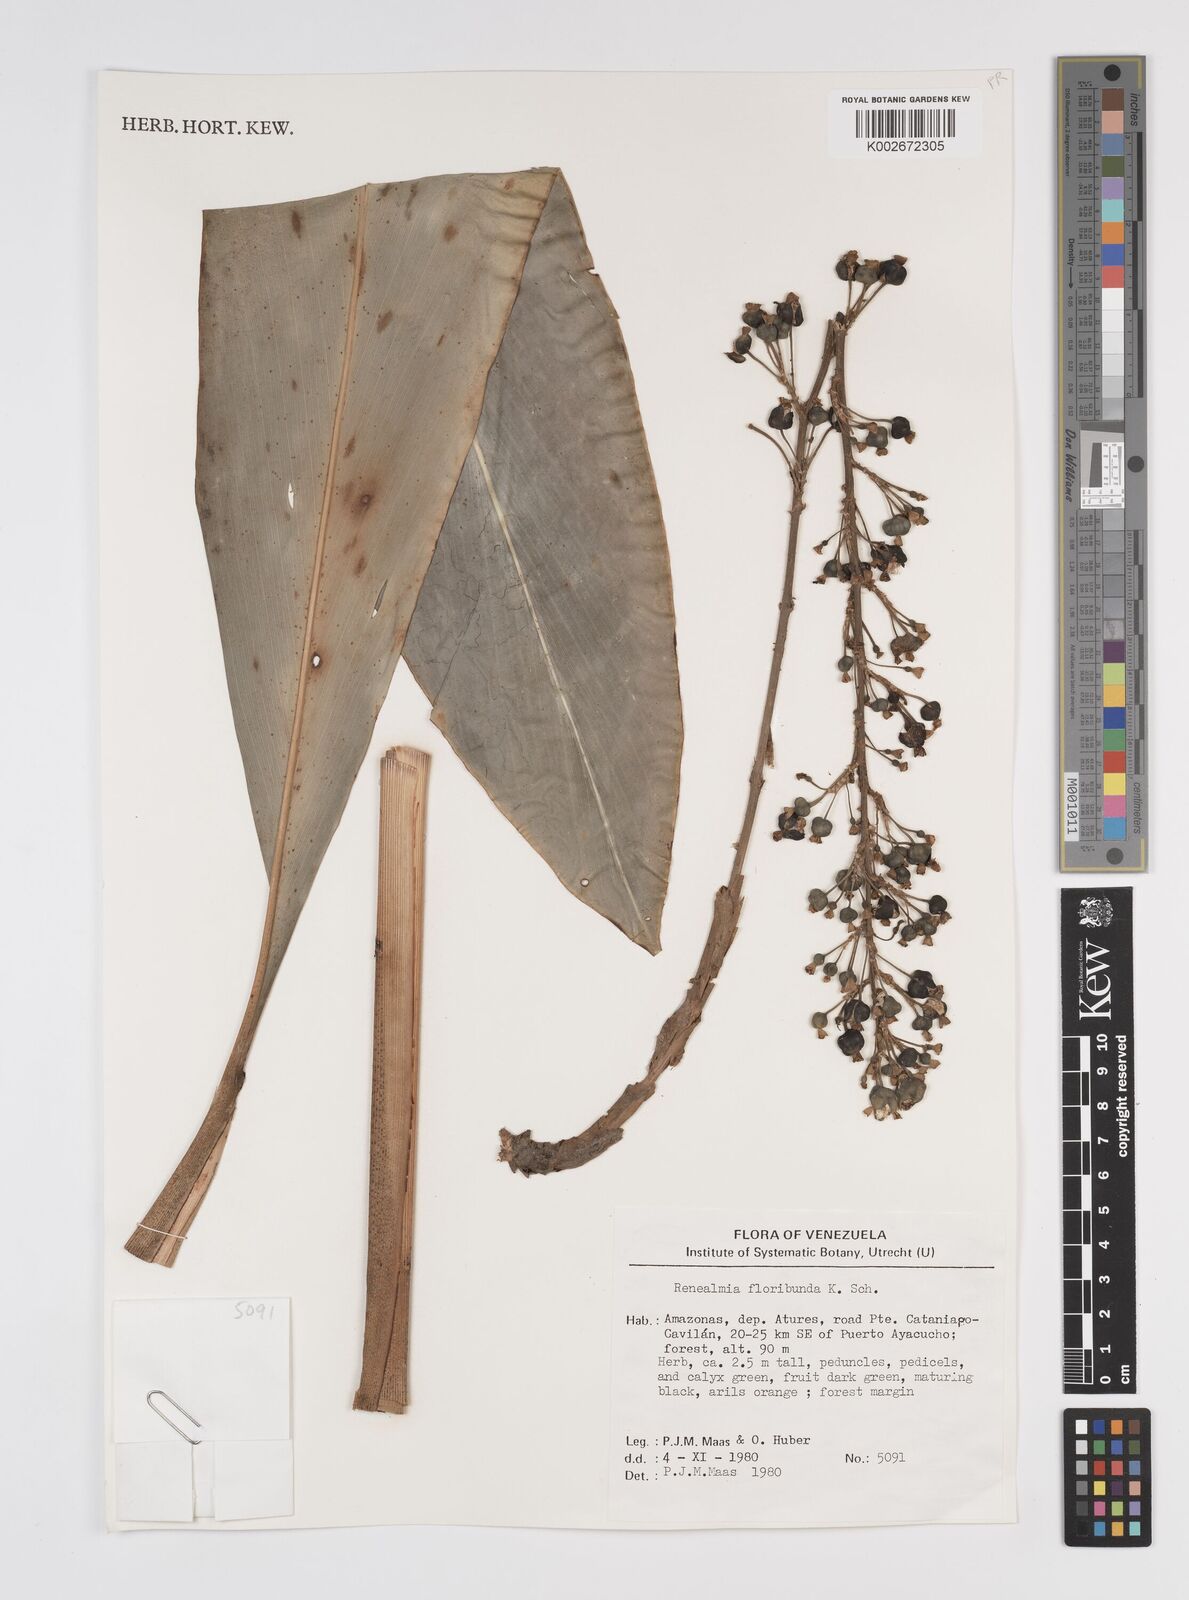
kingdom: Plantae
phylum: Tracheophyta
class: Liliopsida
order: Zingiberales
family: Zingiberaceae
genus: Renealmia
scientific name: Renealmia floribunda
